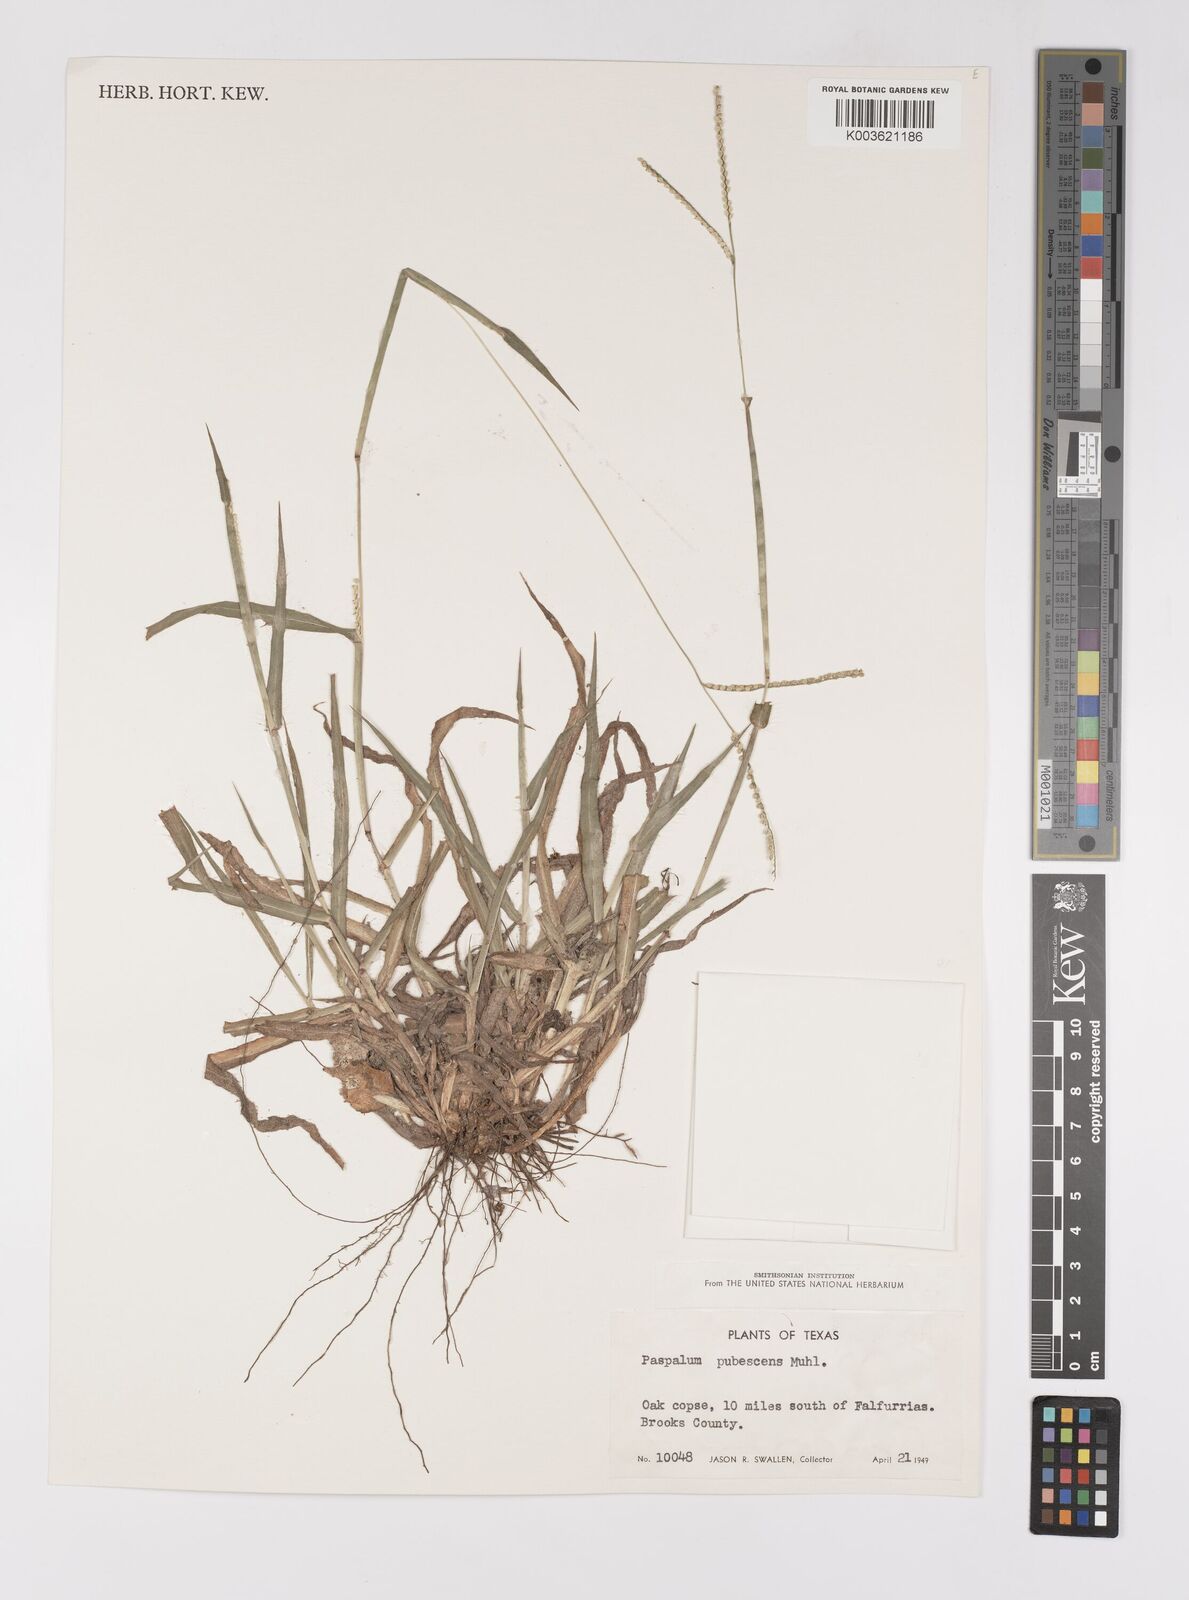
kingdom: Plantae
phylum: Tracheophyta
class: Liliopsida
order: Poales
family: Poaceae
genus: Paspalum
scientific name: Paspalum setaceum
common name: Slender paspalum
